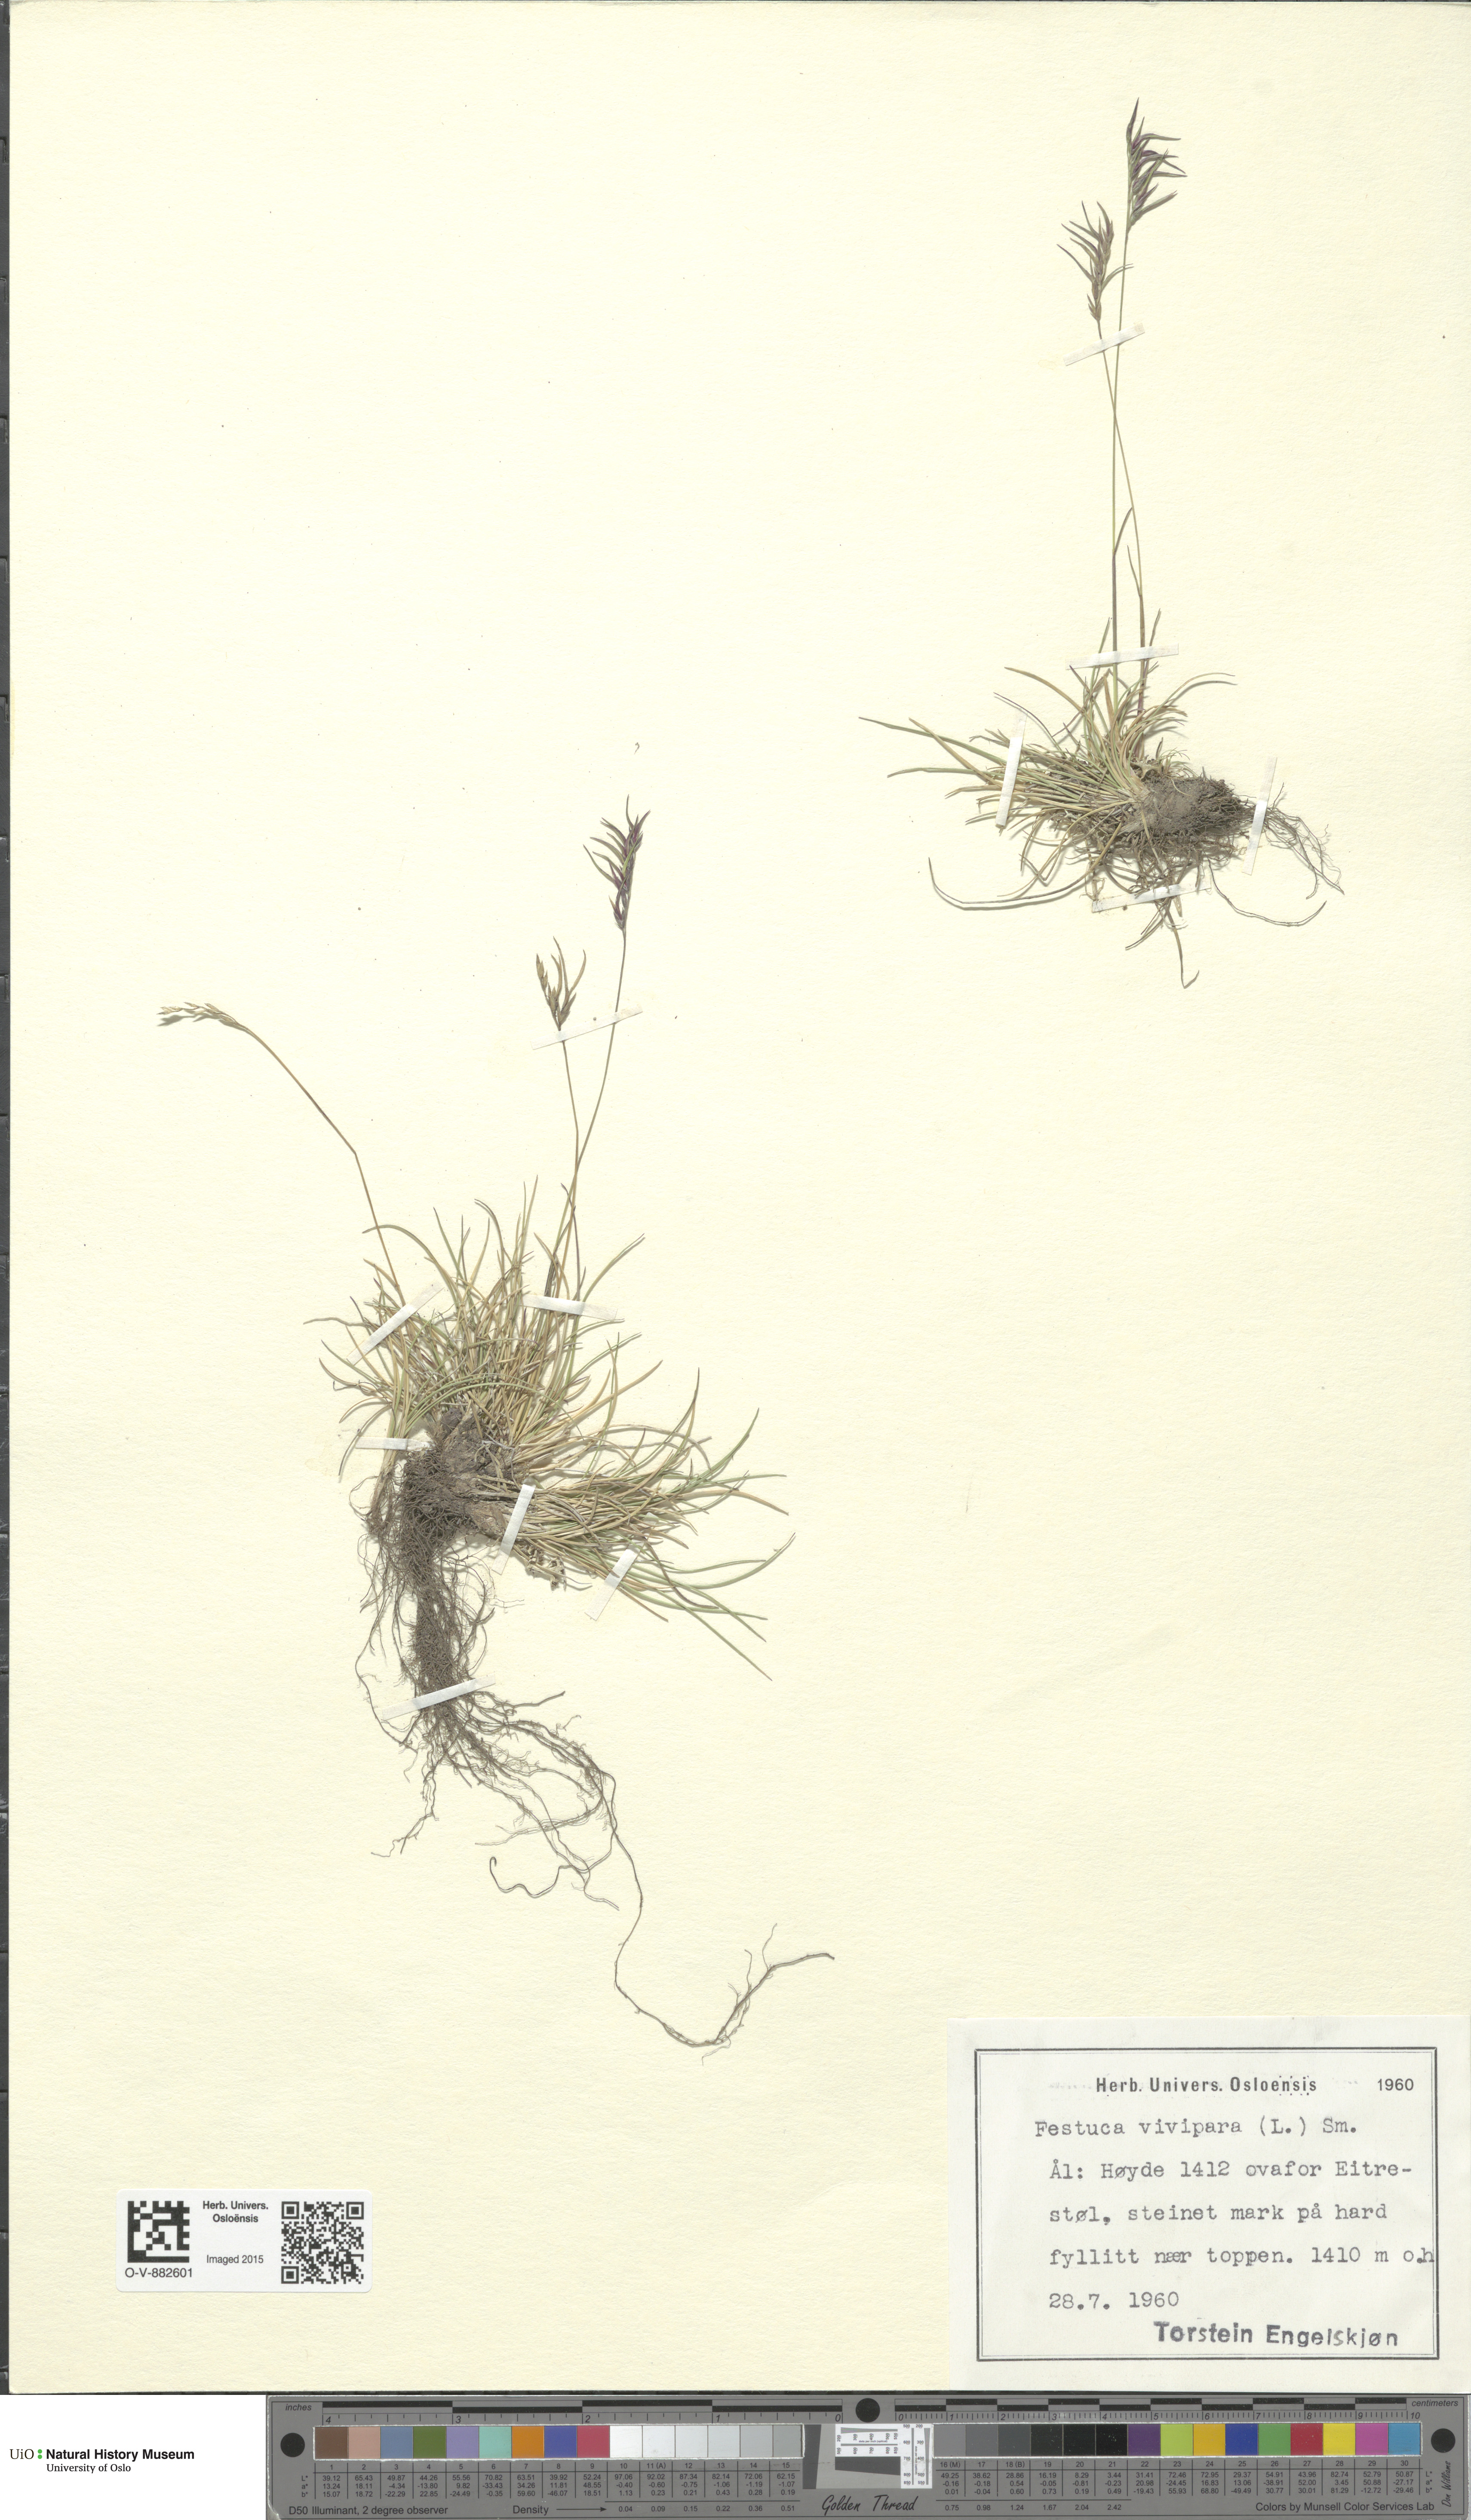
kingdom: Plantae
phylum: Tracheophyta
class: Liliopsida
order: Poales
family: Poaceae
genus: Festuca
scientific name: Festuca vivipara
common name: Viviparous sheep's-fescue
